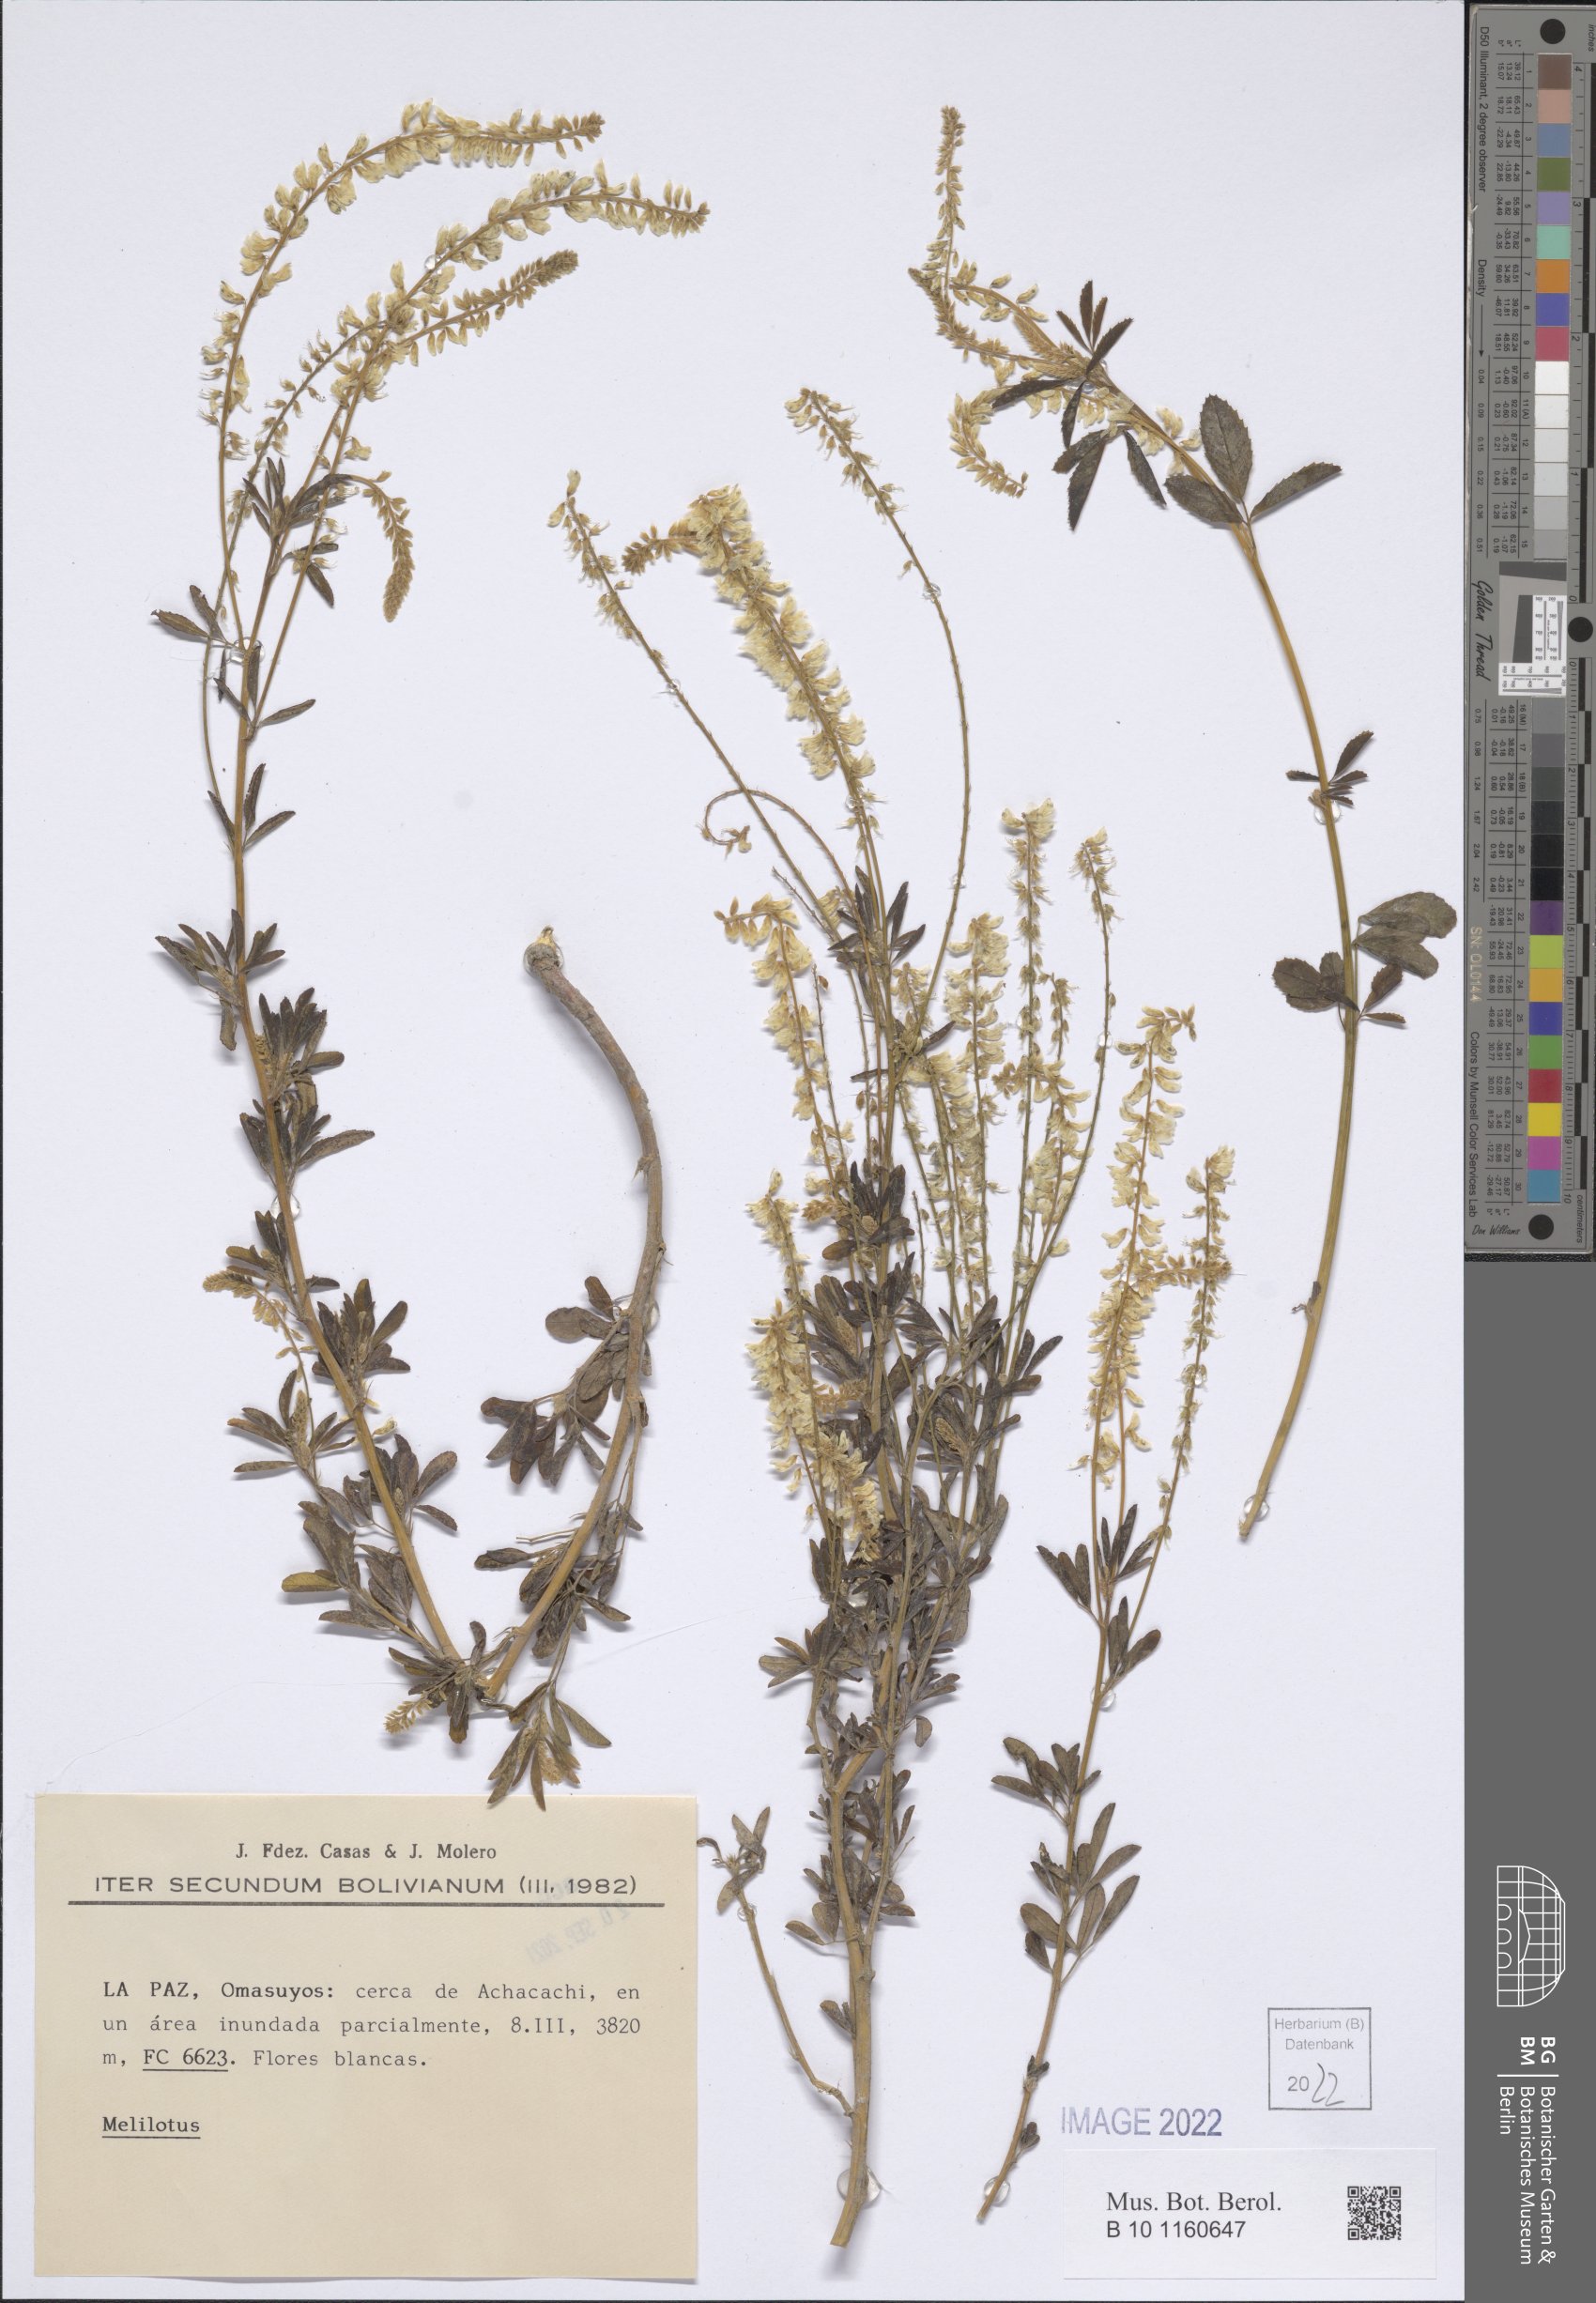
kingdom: Plantae
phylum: Tracheophyta
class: Magnoliopsida
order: Fabales
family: Fabaceae
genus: Melilotus
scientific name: Melilotus
